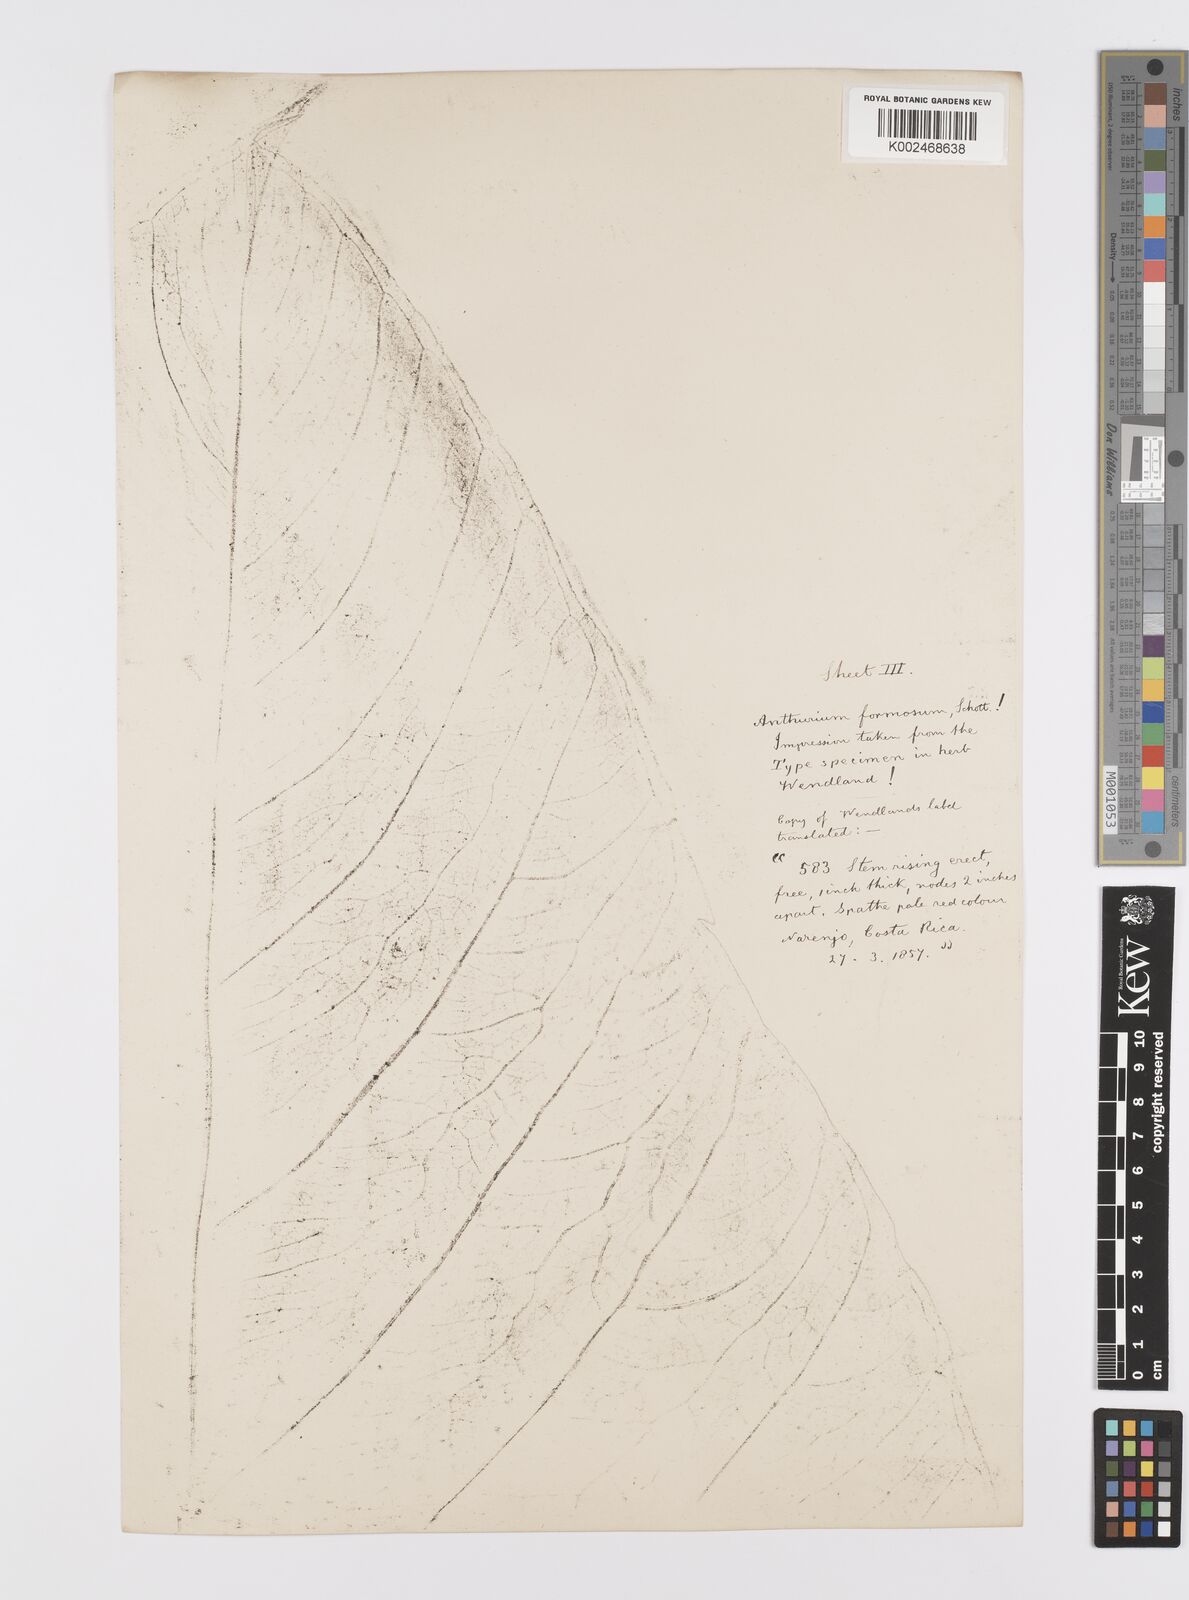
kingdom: Plantae
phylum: Tracheophyta
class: Liliopsida
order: Alismatales
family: Araceae
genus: Anthurium
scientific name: Anthurium formosum
